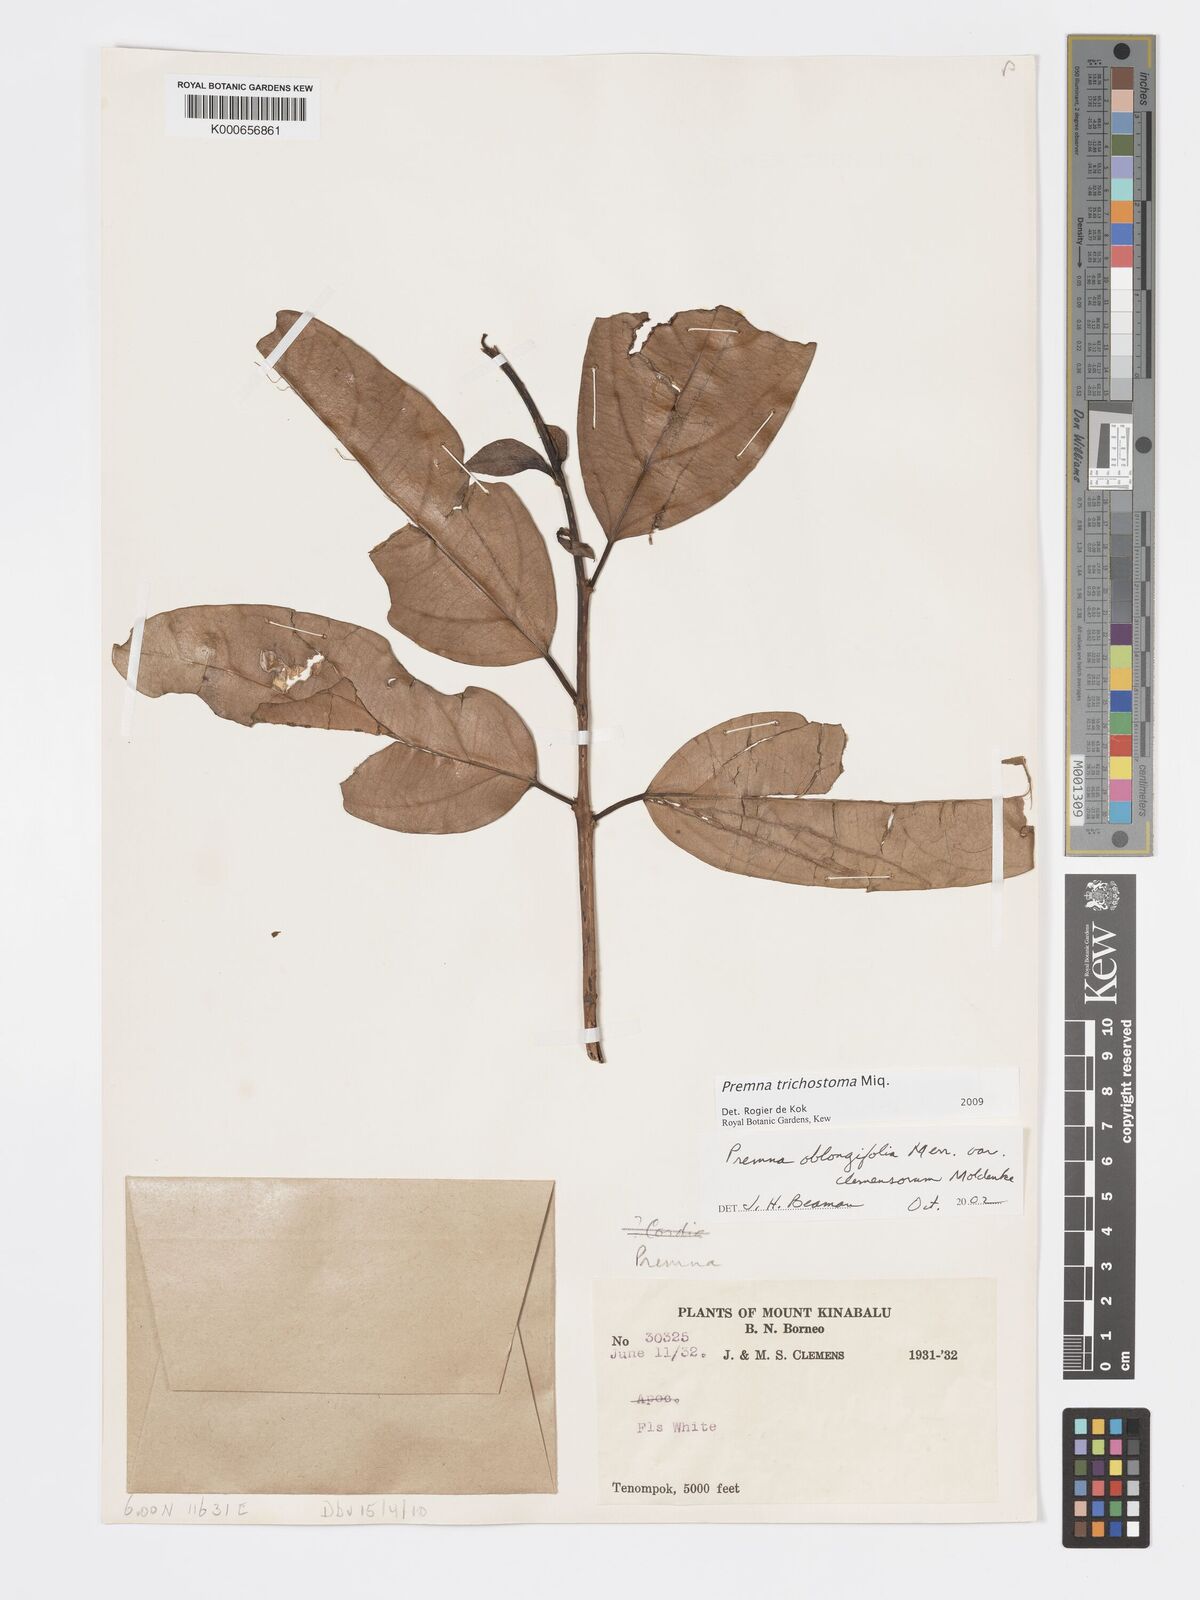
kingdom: Plantae
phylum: Tracheophyta
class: Magnoliopsida
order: Lamiales
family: Lamiaceae
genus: Premna
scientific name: Premna trichostoma
